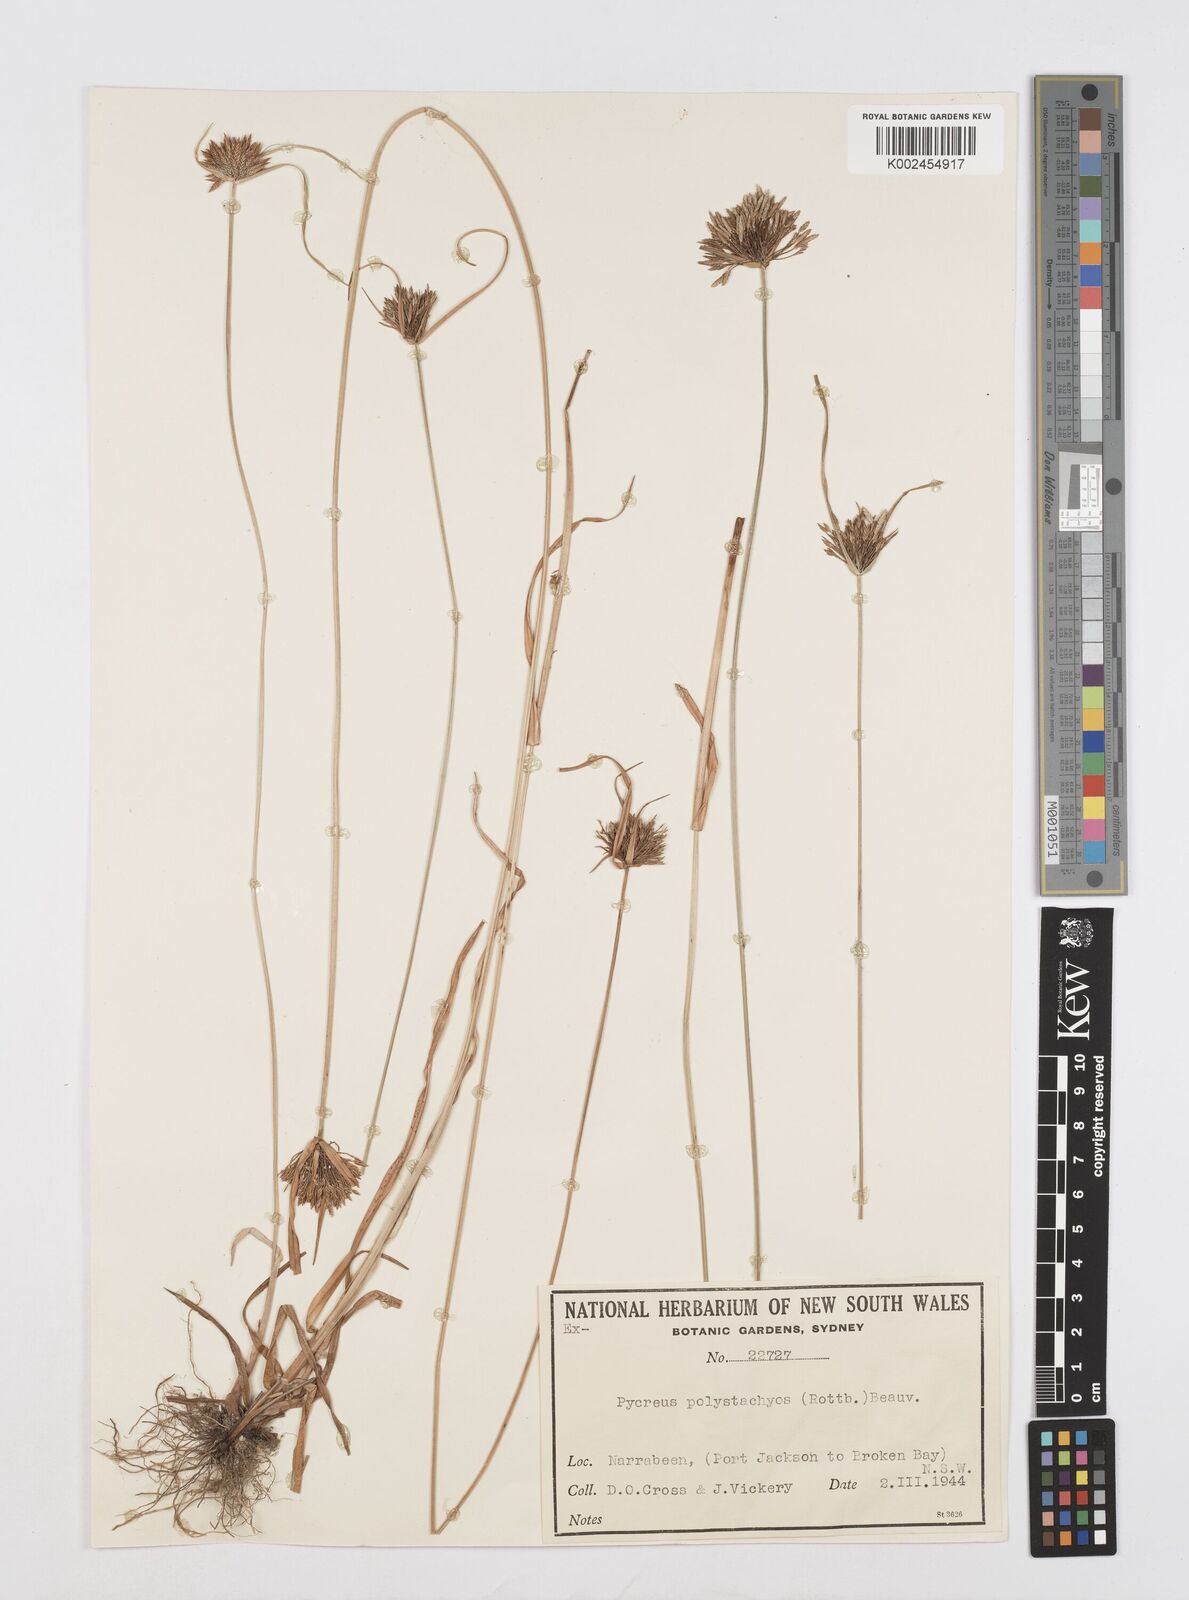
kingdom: Plantae
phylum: Tracheophyta
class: Liliopsida
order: Poales
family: Cyperaceae
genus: Cyperus
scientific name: Cyperus polystachyos
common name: Bunchy flat sedge
